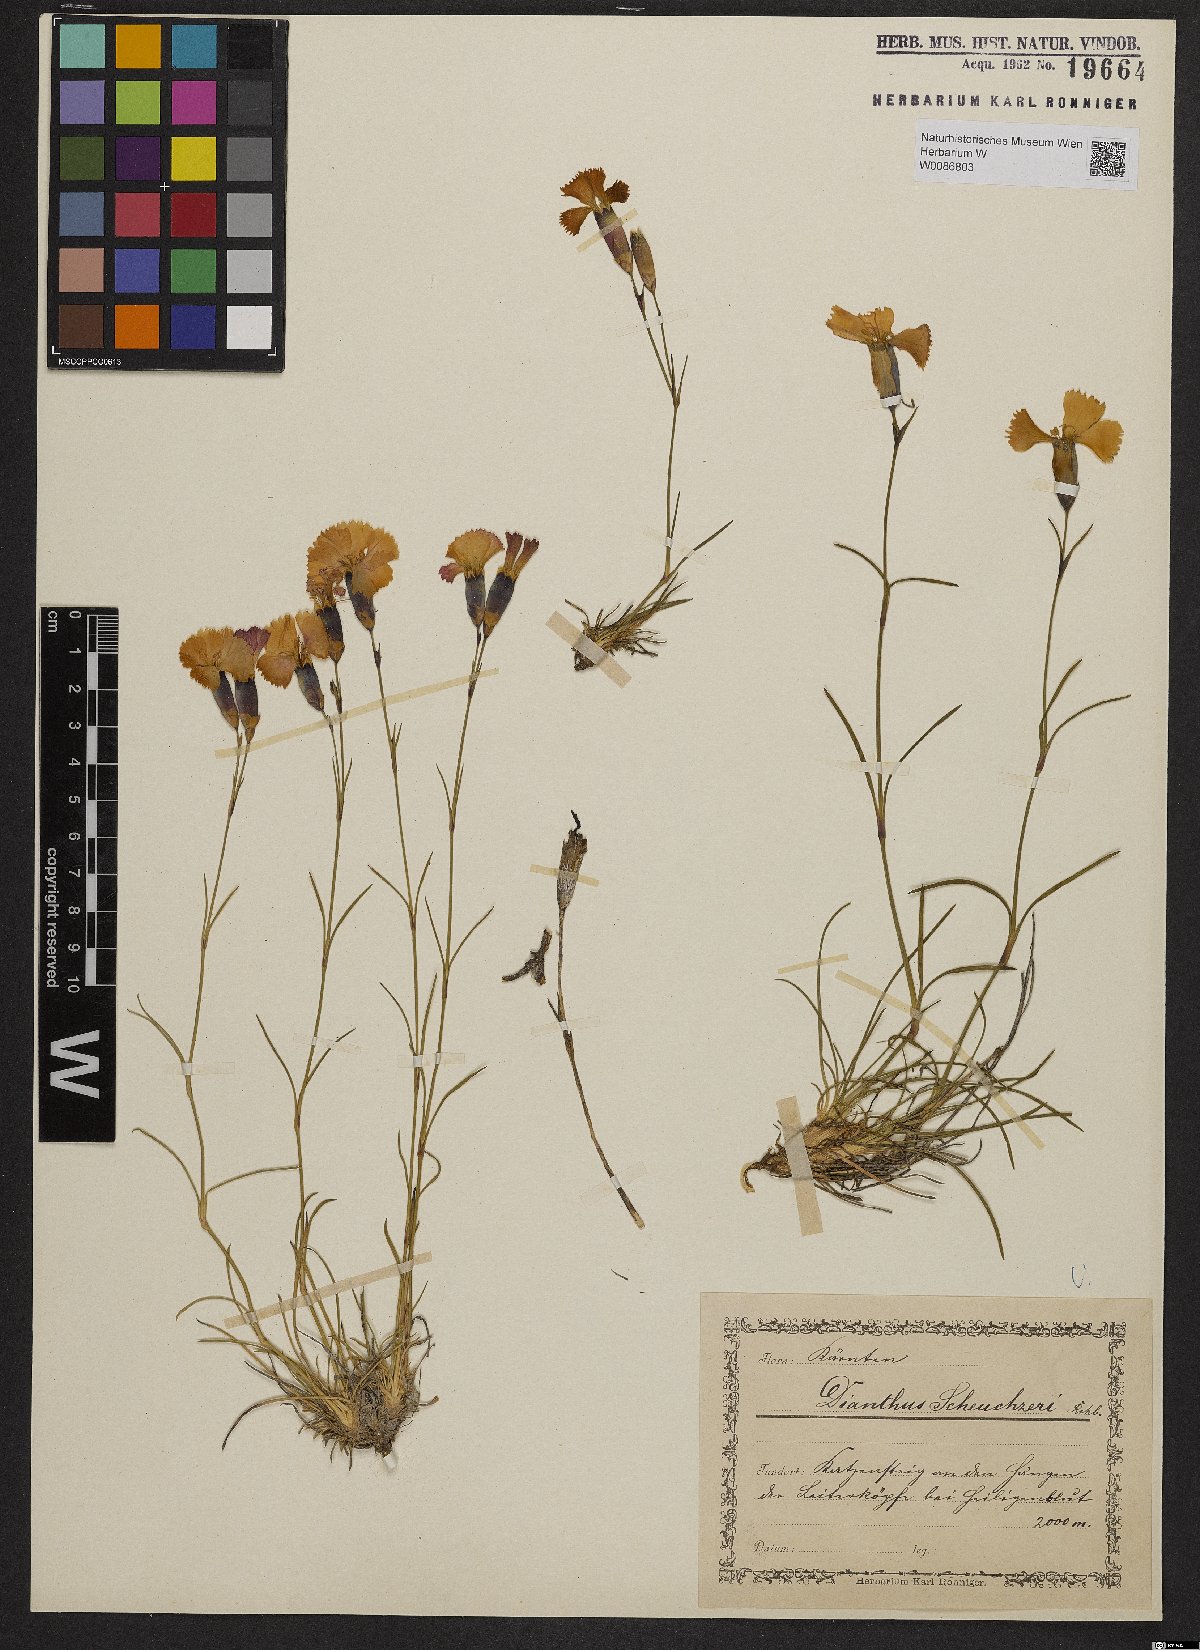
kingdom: Plantae
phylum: Tracheophyta
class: Magnoliopsida
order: Caryophyllales
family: Caryophyllaceae
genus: Dianthus
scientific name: Dianthus sylvestris
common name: Wood pink
